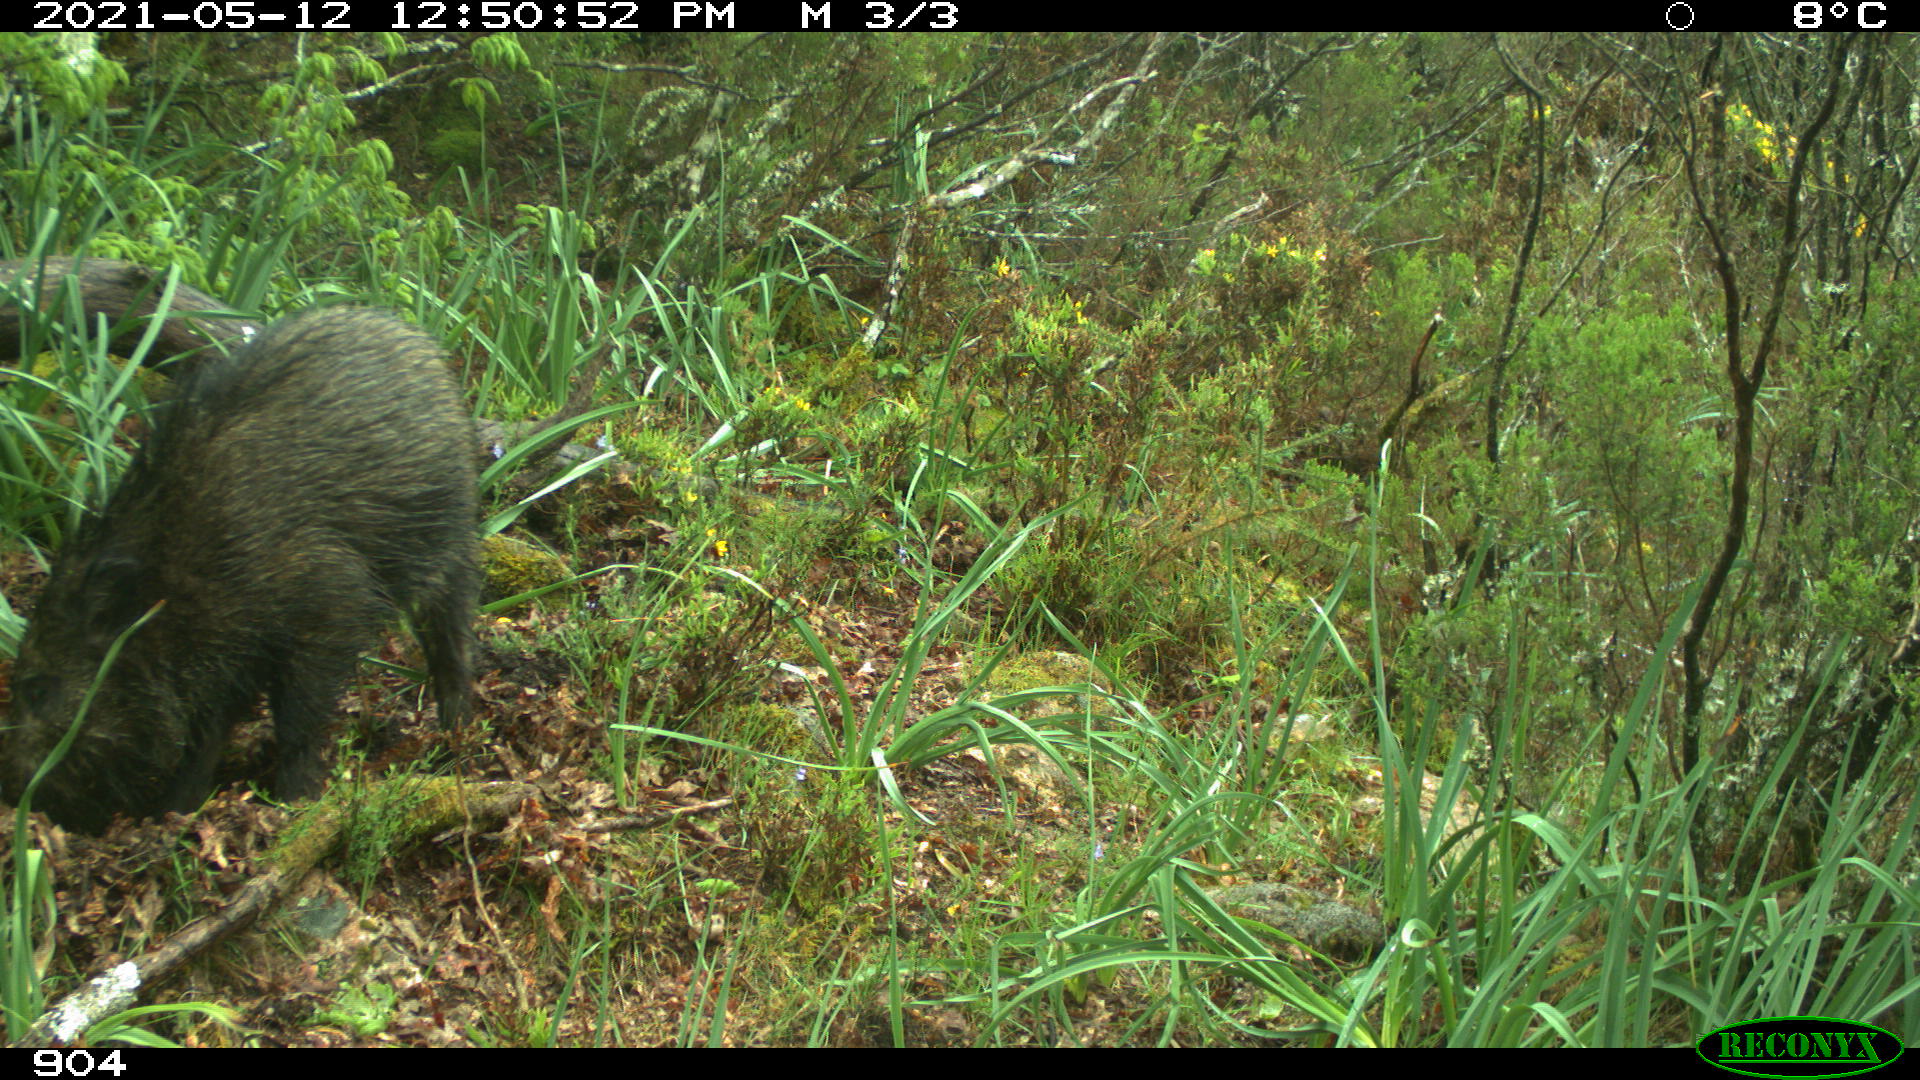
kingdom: Animalia
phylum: Chordata
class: Mammalia
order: Artiodactyla
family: Suidae
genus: Sus
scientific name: Sus scrofa
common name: Wild boar
